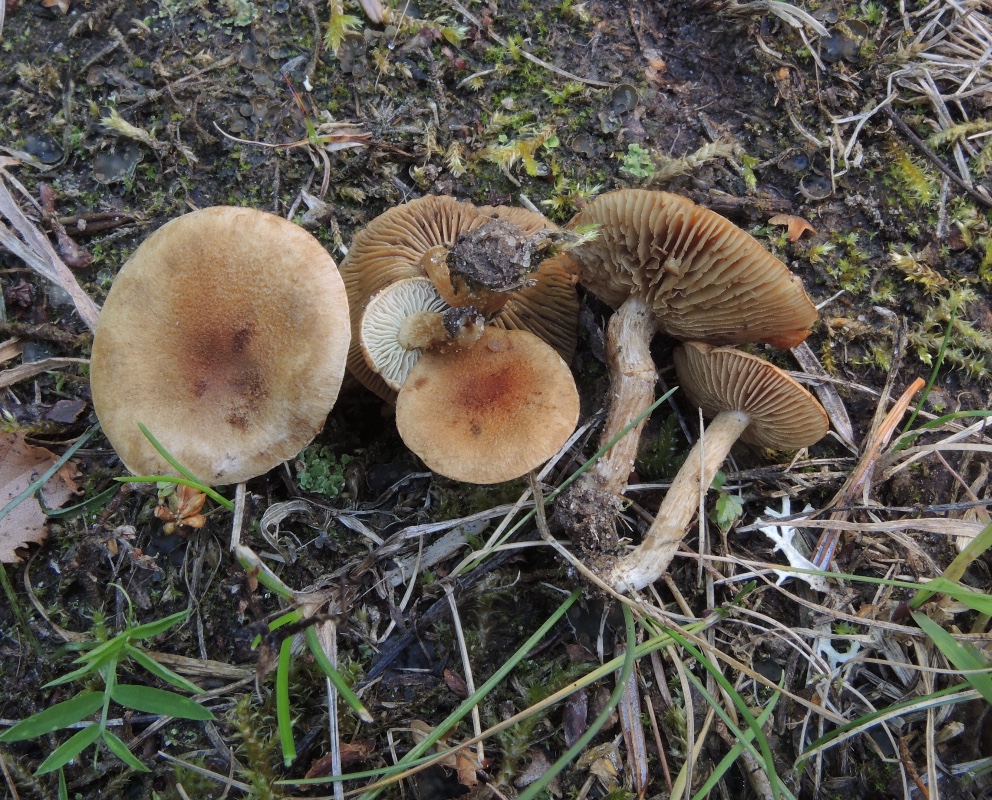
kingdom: Fungi
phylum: Basidiomycota
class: Agaricomycetes
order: Agaricales
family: Inocybaceae
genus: Inocybe
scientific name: Inocybe
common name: trævlhat
